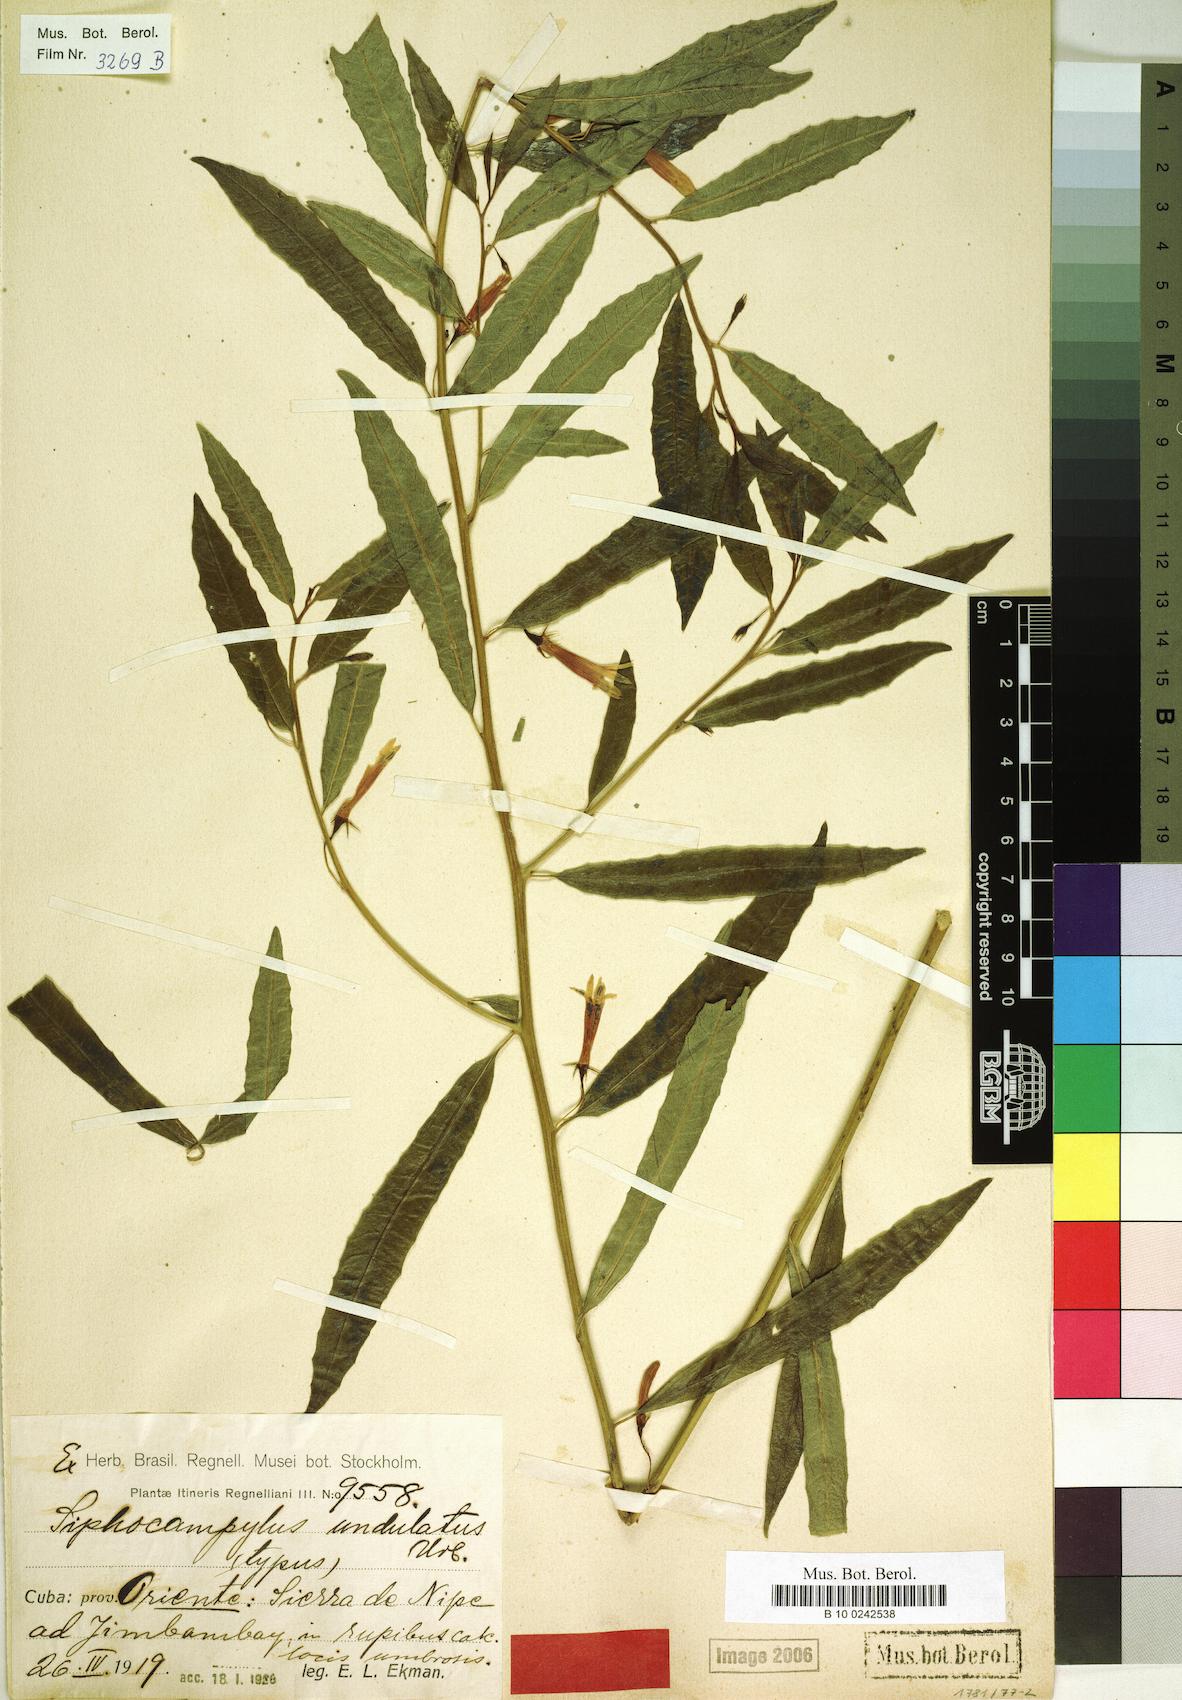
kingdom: Plantae
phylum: Tracheophyta
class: Magnoliopsida
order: Asterales
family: Campanulaceae
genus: Siphocampylus
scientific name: Siphocampylus manettiiflorus
